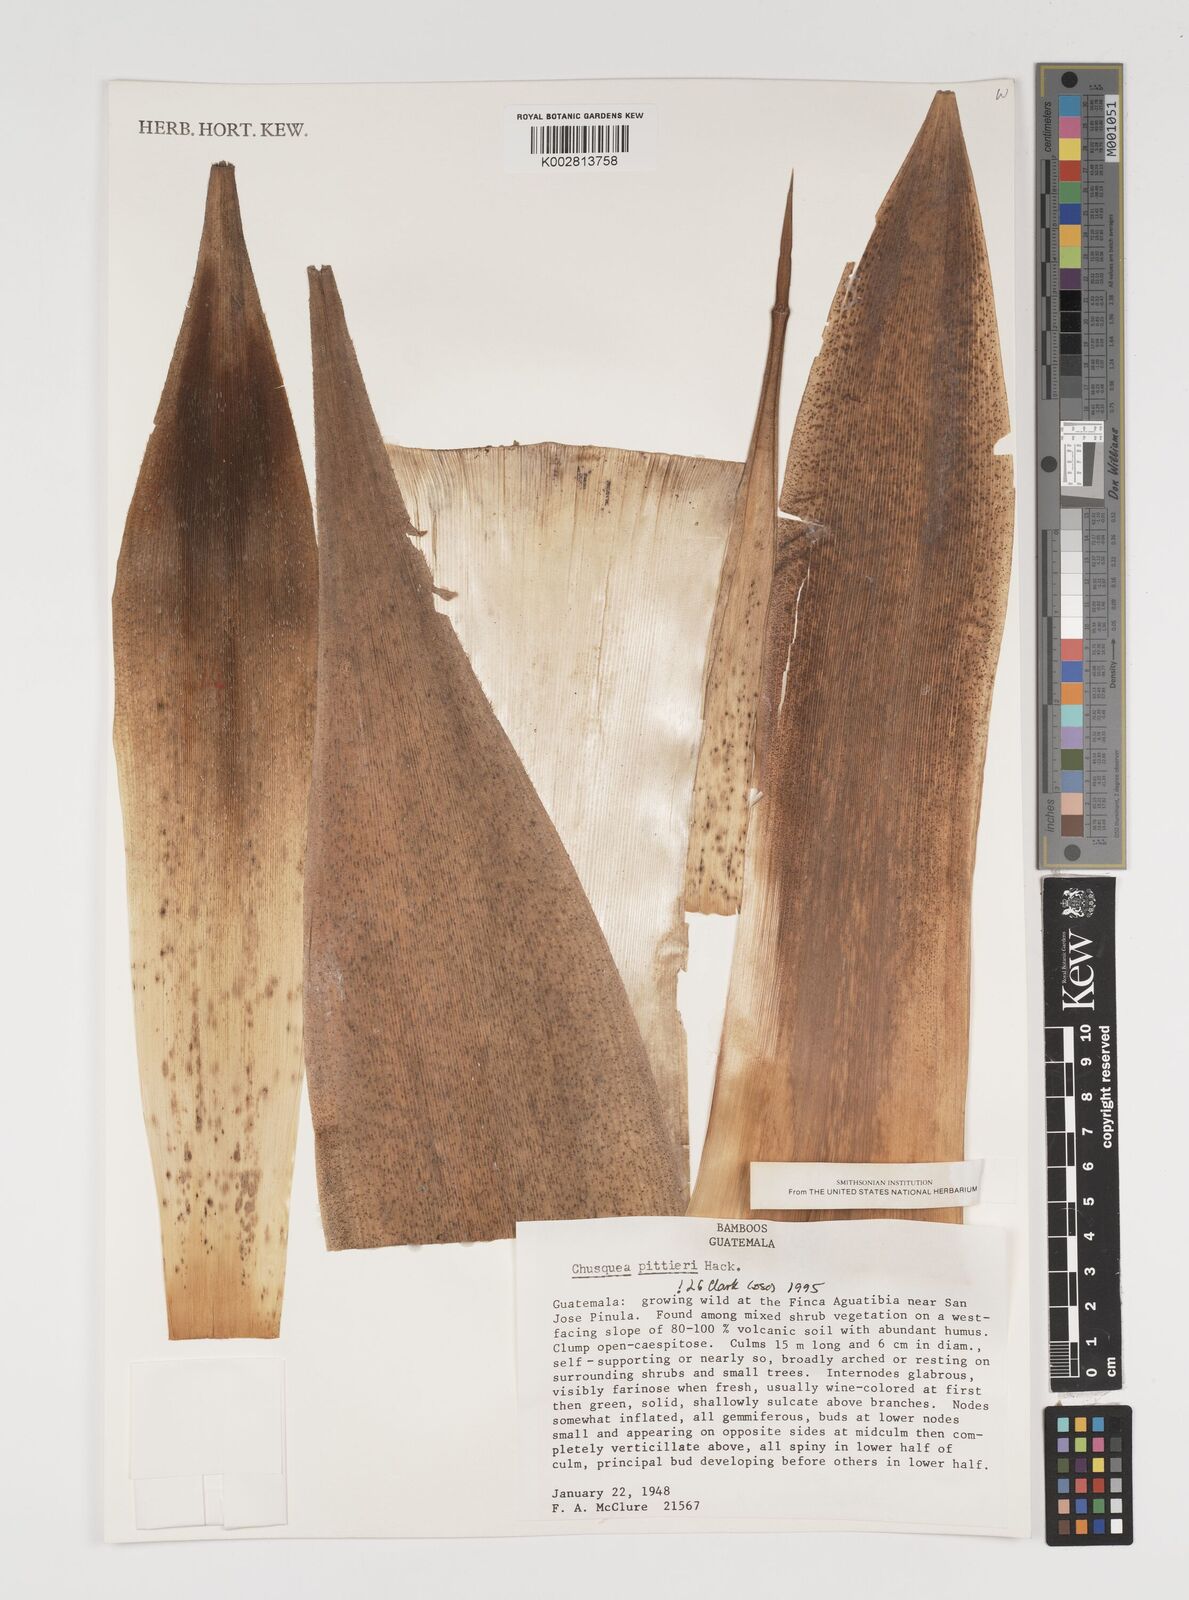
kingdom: Plantae
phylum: Tracheophyta
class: Liliopsida
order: Poales
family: Poaceae
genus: Chusquea
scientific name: Chusquea pittieri
